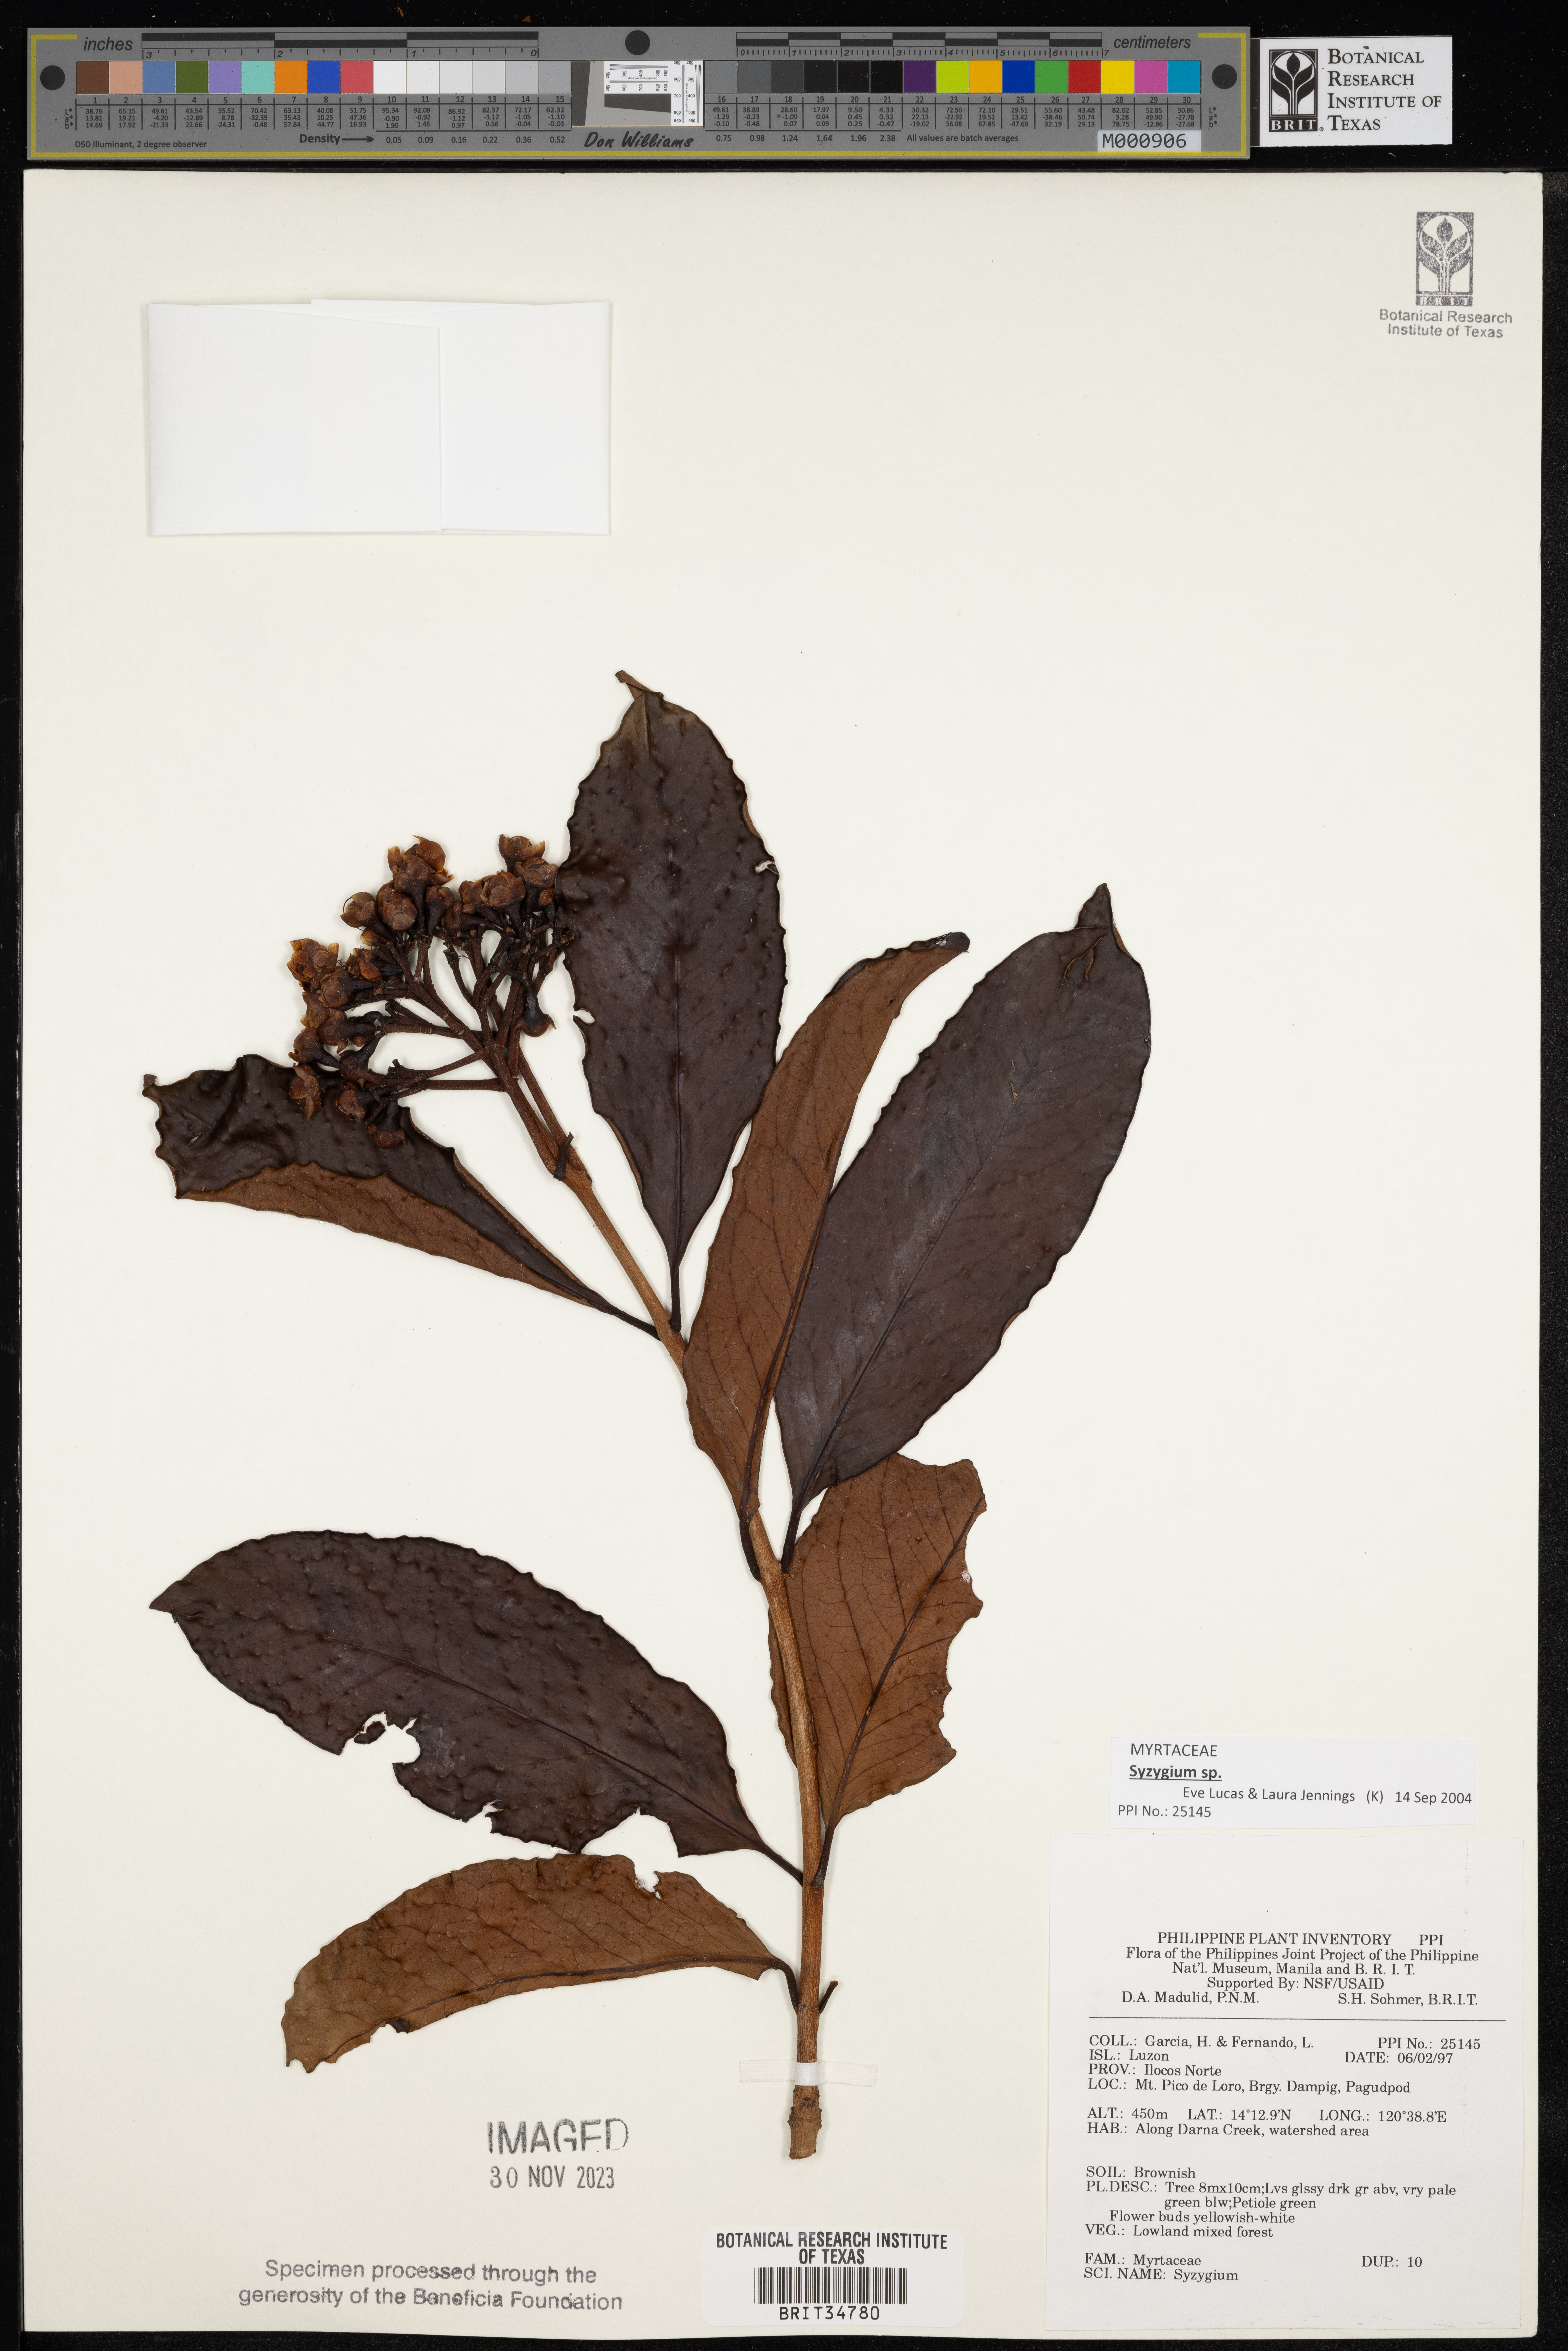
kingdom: Plantae
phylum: Tracheophyta
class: Magnoliopsida
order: Myrtales
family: Myrtaceae
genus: Syzygium
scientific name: Syzygium
